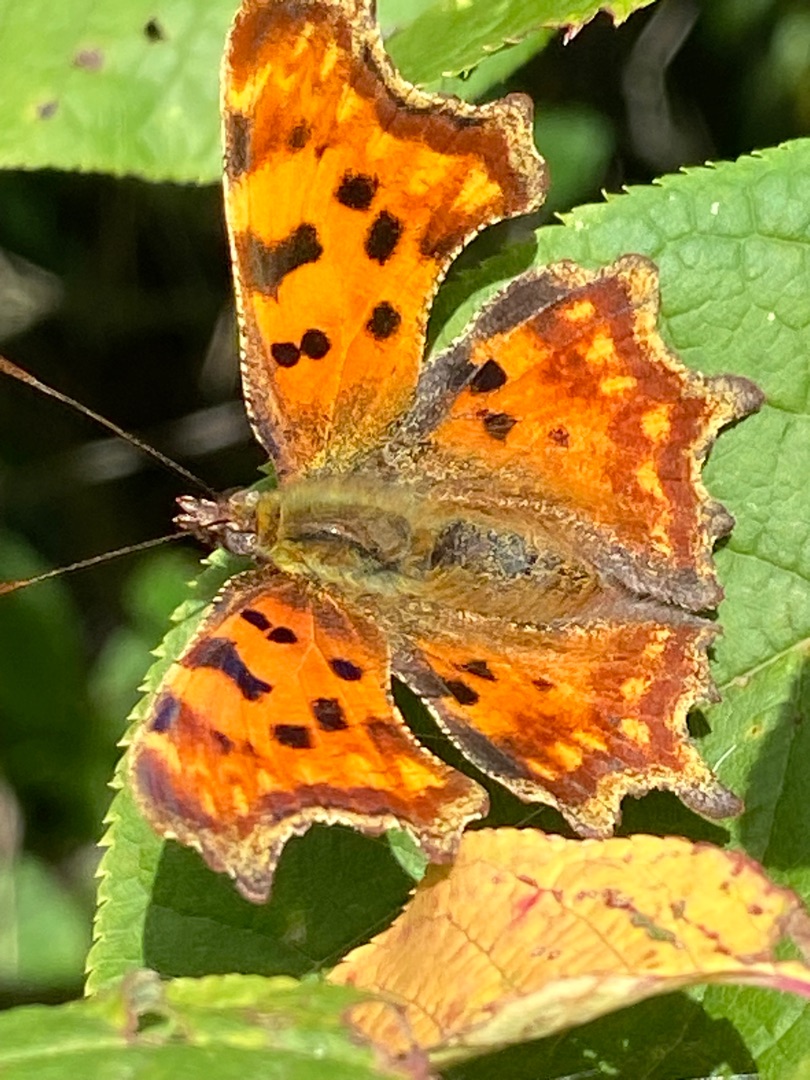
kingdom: Animalia
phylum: Arthropoda
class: Insecta
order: Lepidoptera
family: Nymphalidae
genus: Polygonia
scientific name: Polygonia c-album
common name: Det hvide C
